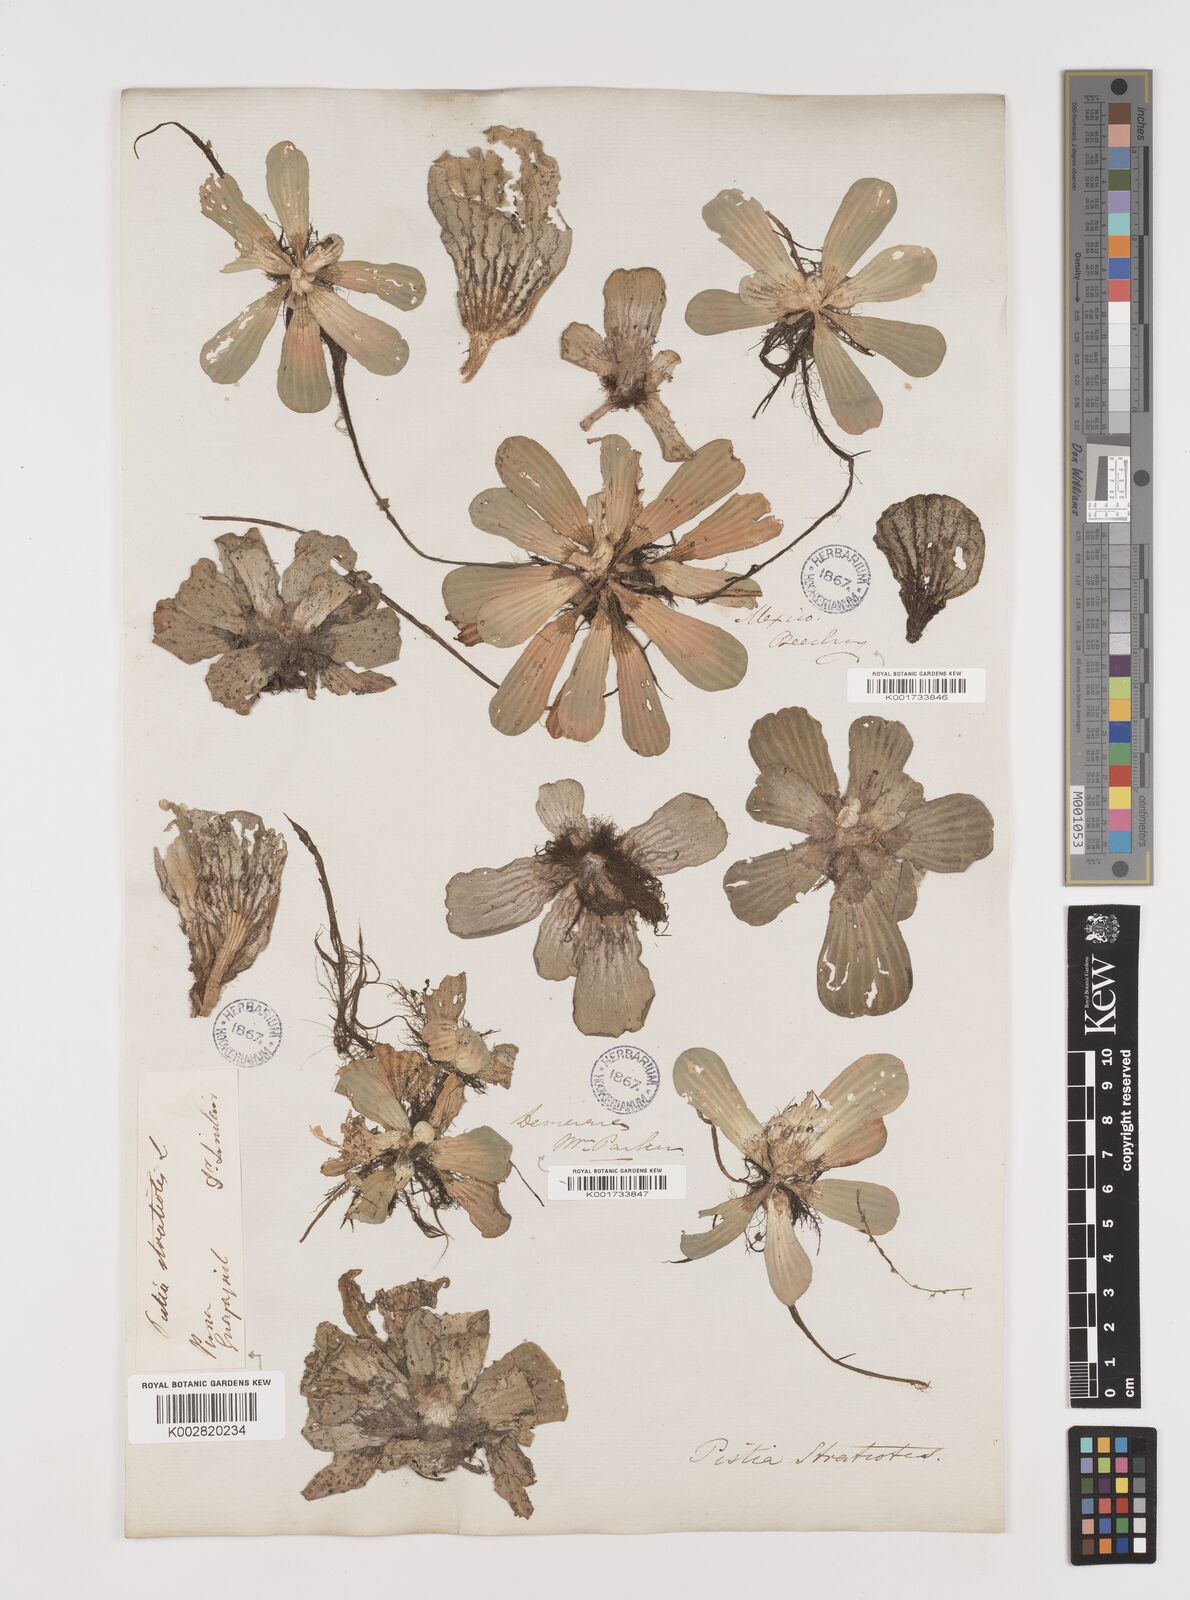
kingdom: Plantae
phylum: Tracheophyta
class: Liliopsida
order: Alismatales
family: Araceae
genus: Pistia
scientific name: Pistia stratiotes
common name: Water lettuce
